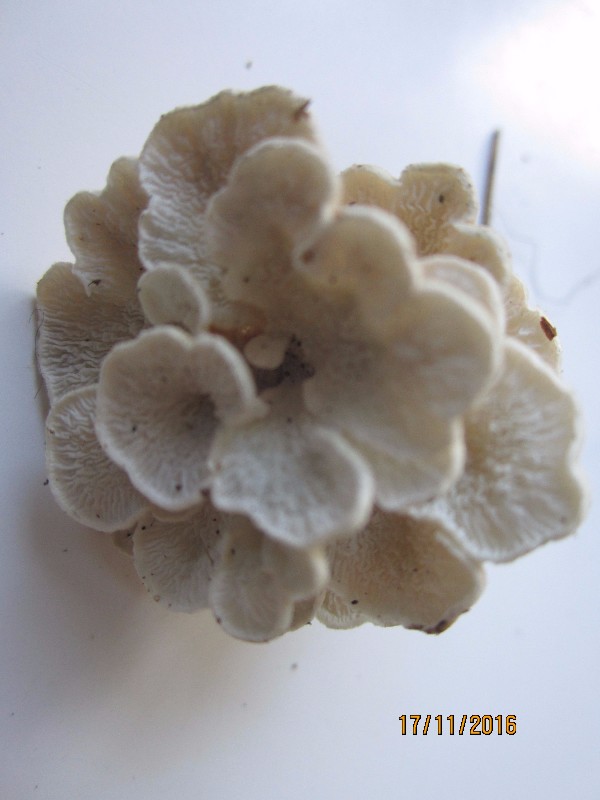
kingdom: Fungi
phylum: Basidiomycota
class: Agaricomycetes
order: Amylocorticiales
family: Amylocorticiaceae
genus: Plicaturopsis
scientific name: Plicaturopsis crispa
